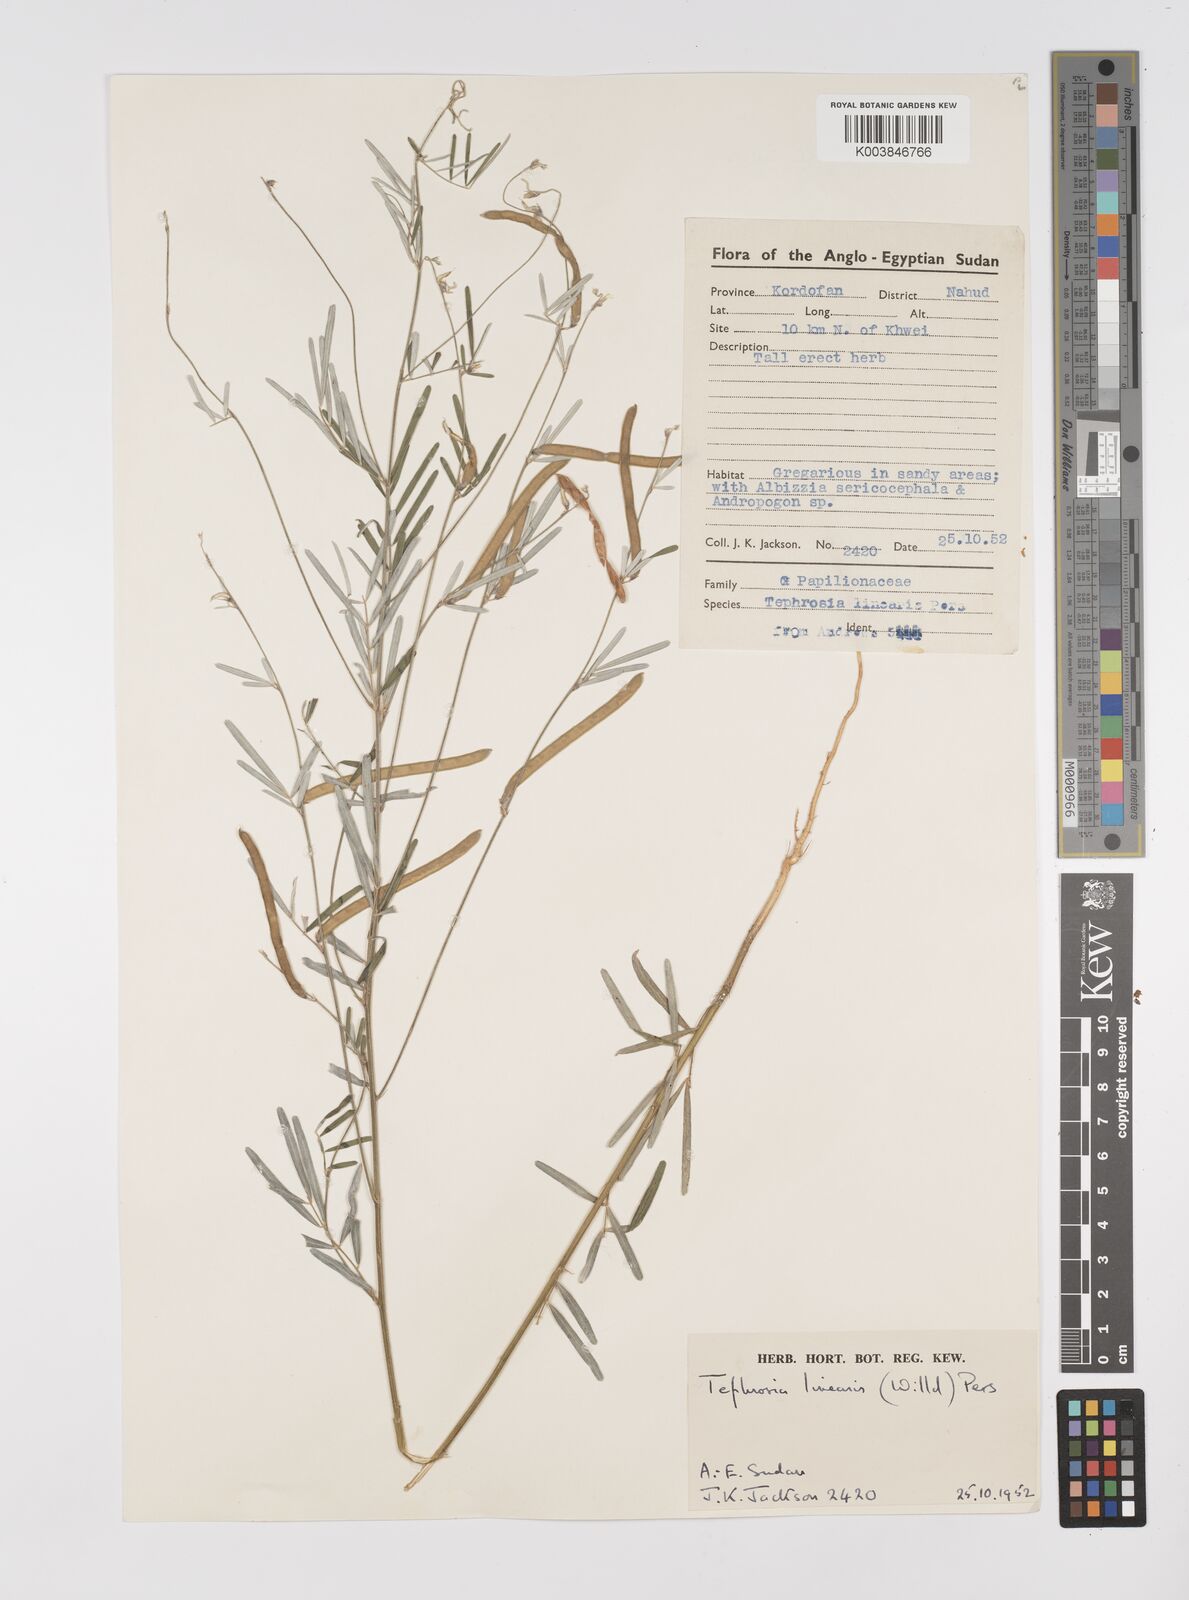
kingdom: Plantae
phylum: Tracheophyta
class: Magnoliopsida
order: Fabales
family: Fabaceae
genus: Tephrosia
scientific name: Tephrosia linearis
